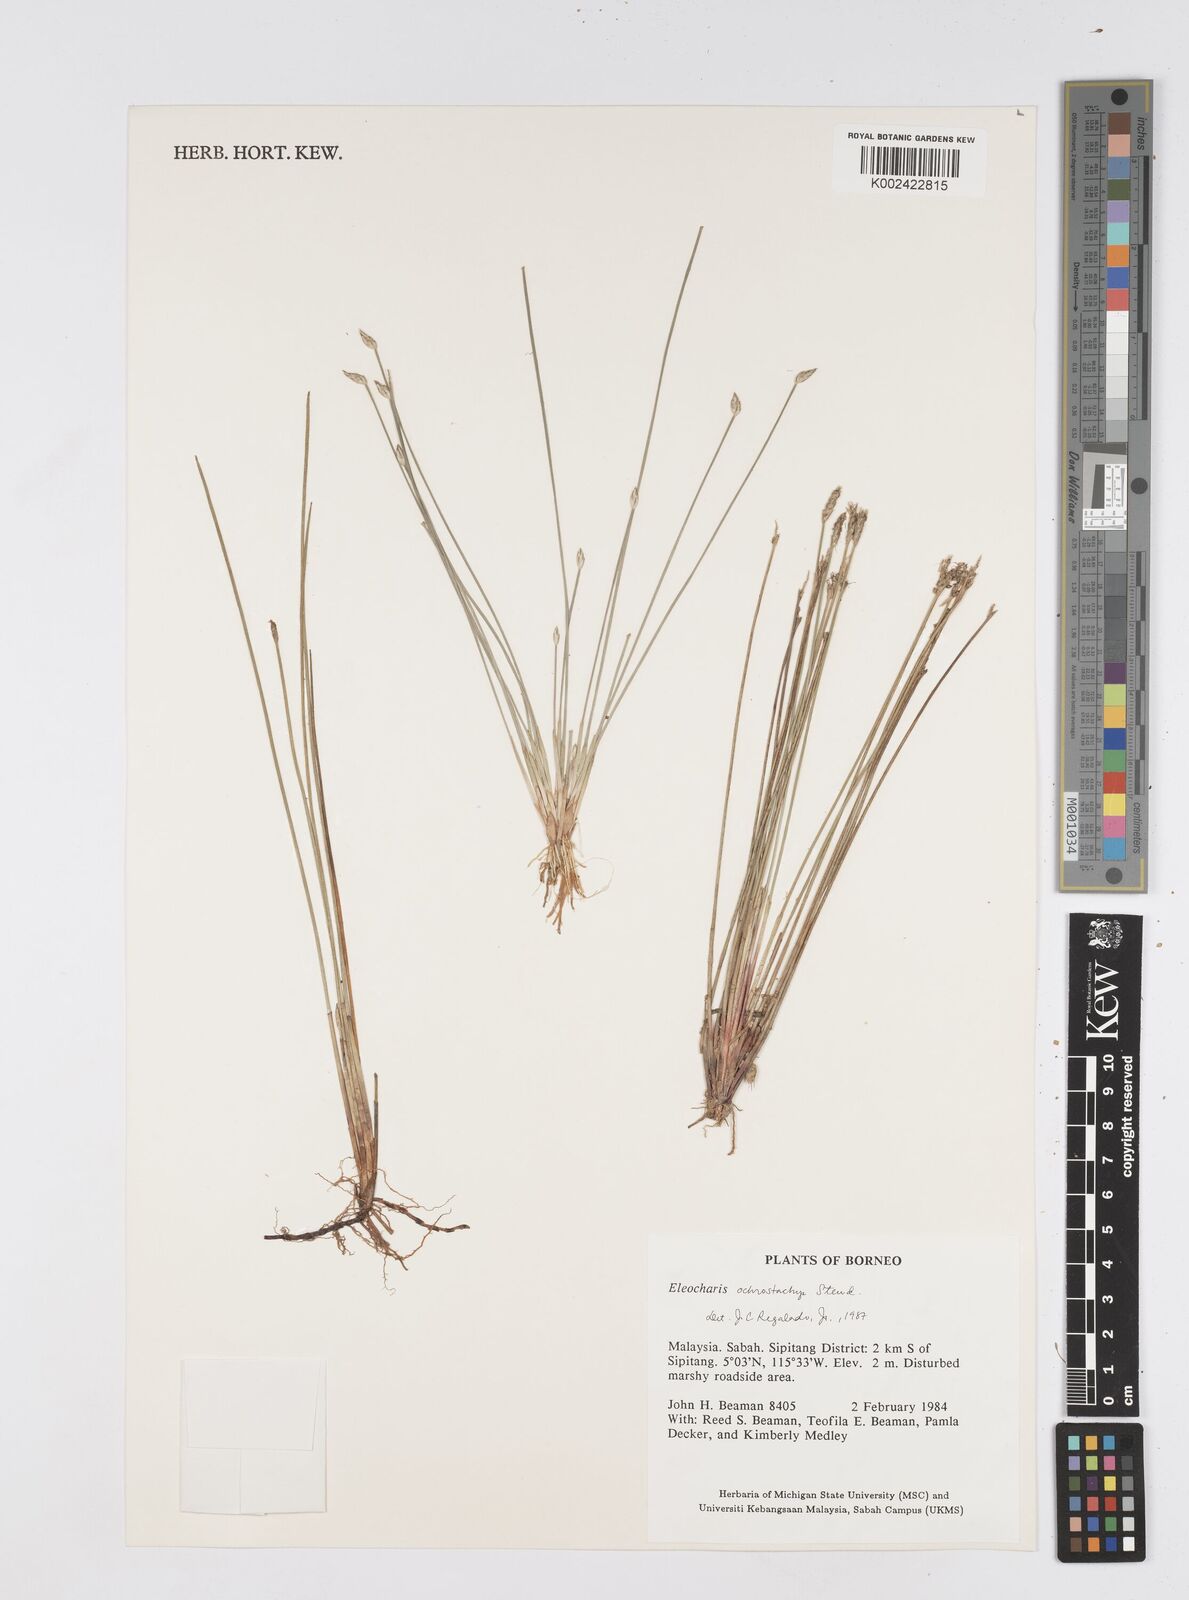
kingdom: Plantae
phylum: Tracheophyta
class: Liliopsida
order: Poales
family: Cyperaceae
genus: Eleocharis
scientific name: Eleocharis ochrostachys
